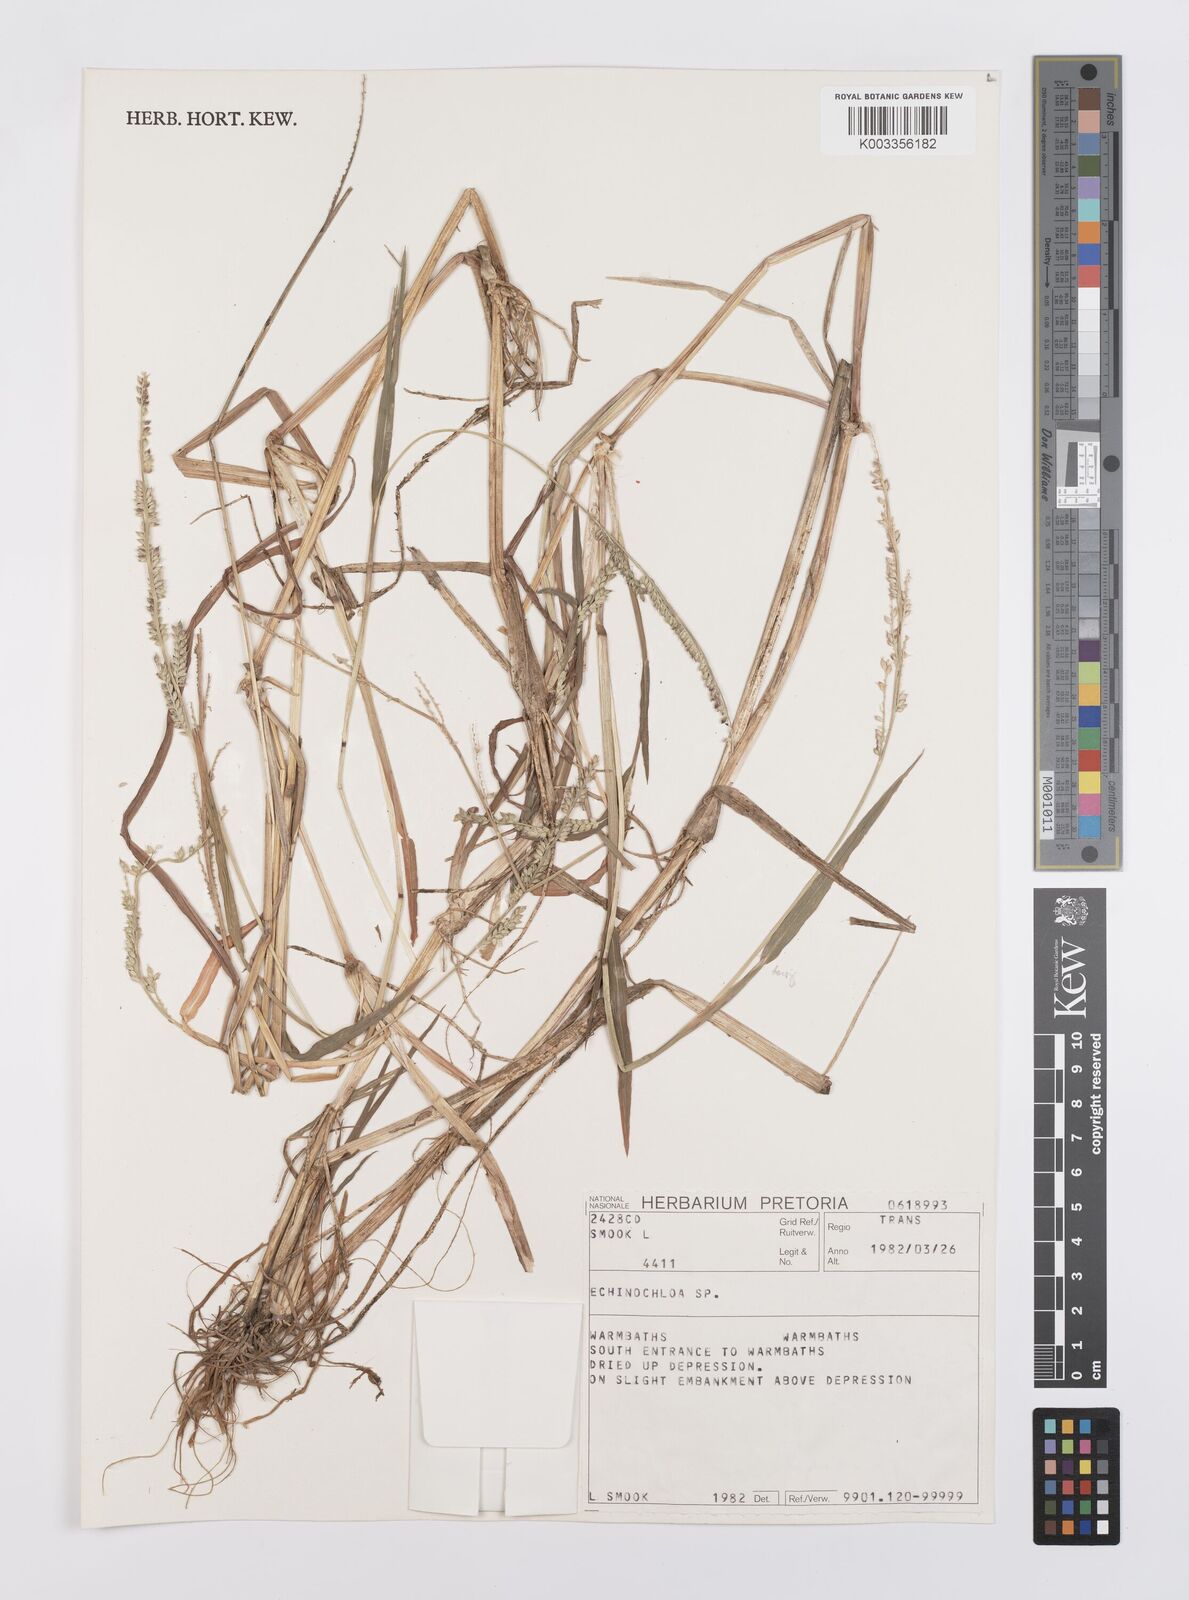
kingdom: Plantae
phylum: Tracheophyta
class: Liliopsida
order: Poales
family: Poaceae
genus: Echinochloa
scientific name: Echinochloa ugandensis
